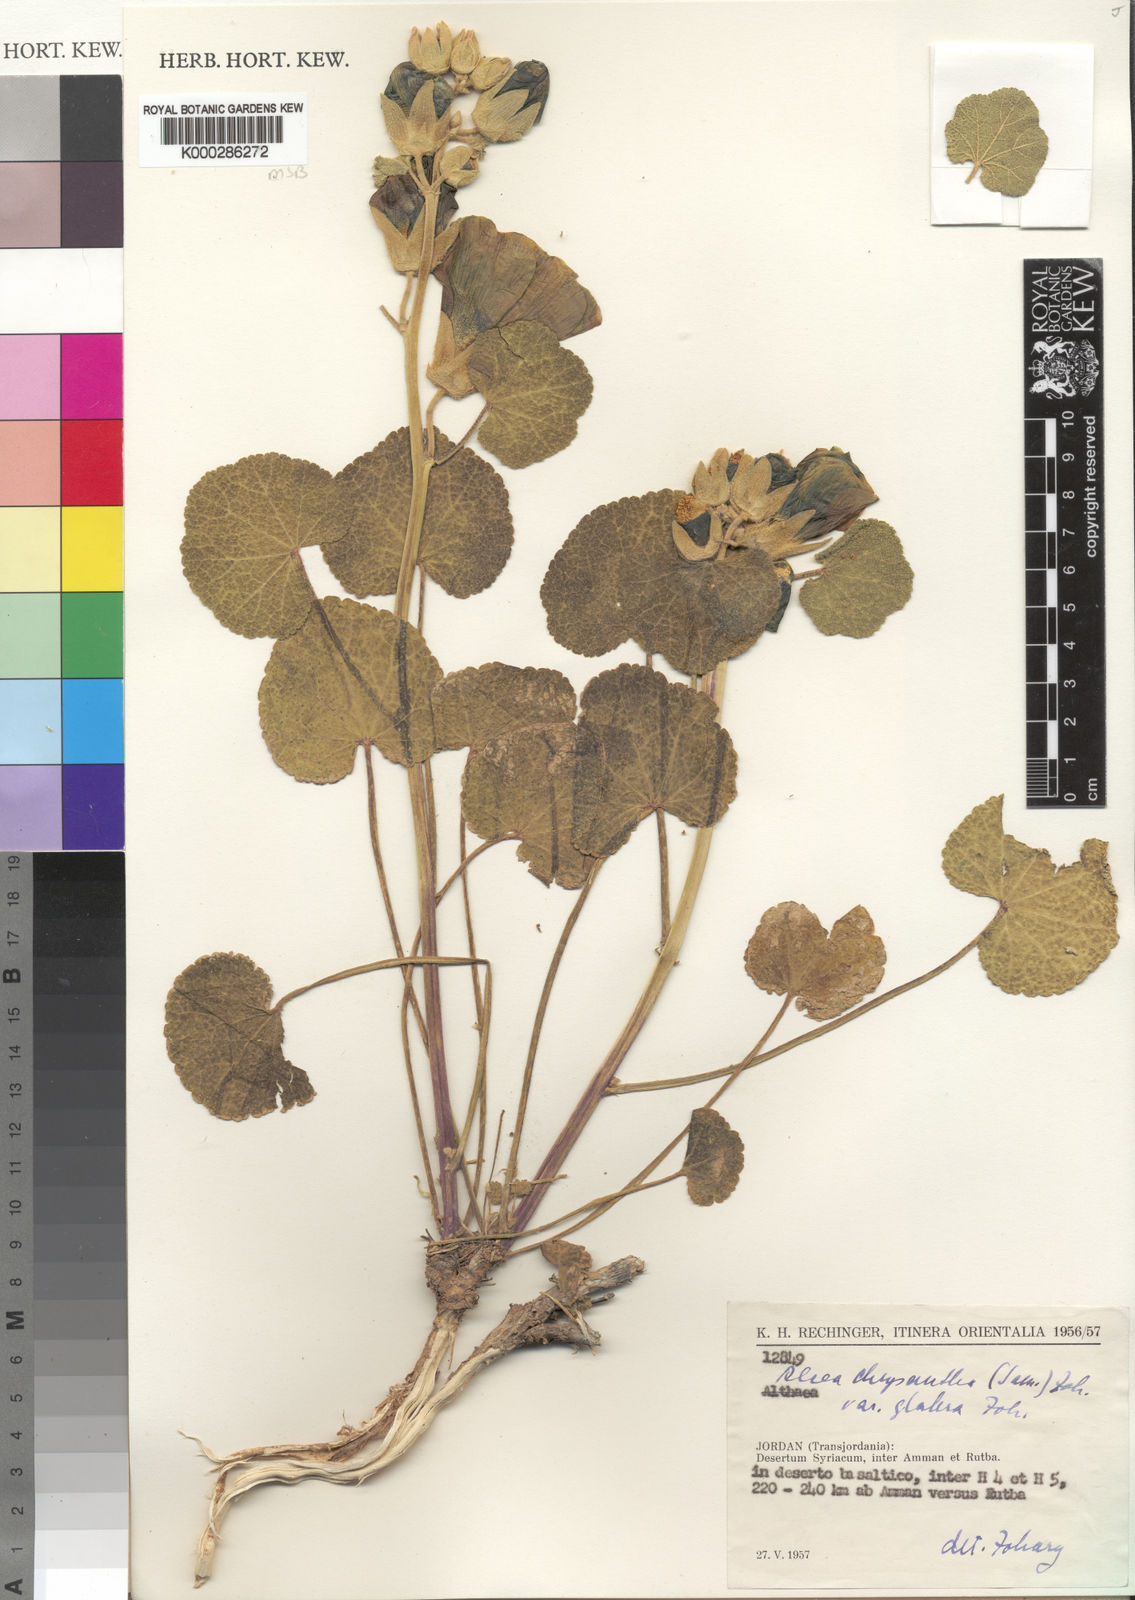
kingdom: Plantae
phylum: Tracheophyta
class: Magnoliopsida
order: Malvales
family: Malvaceae
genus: Alcea
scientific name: Alcea chrysantha
